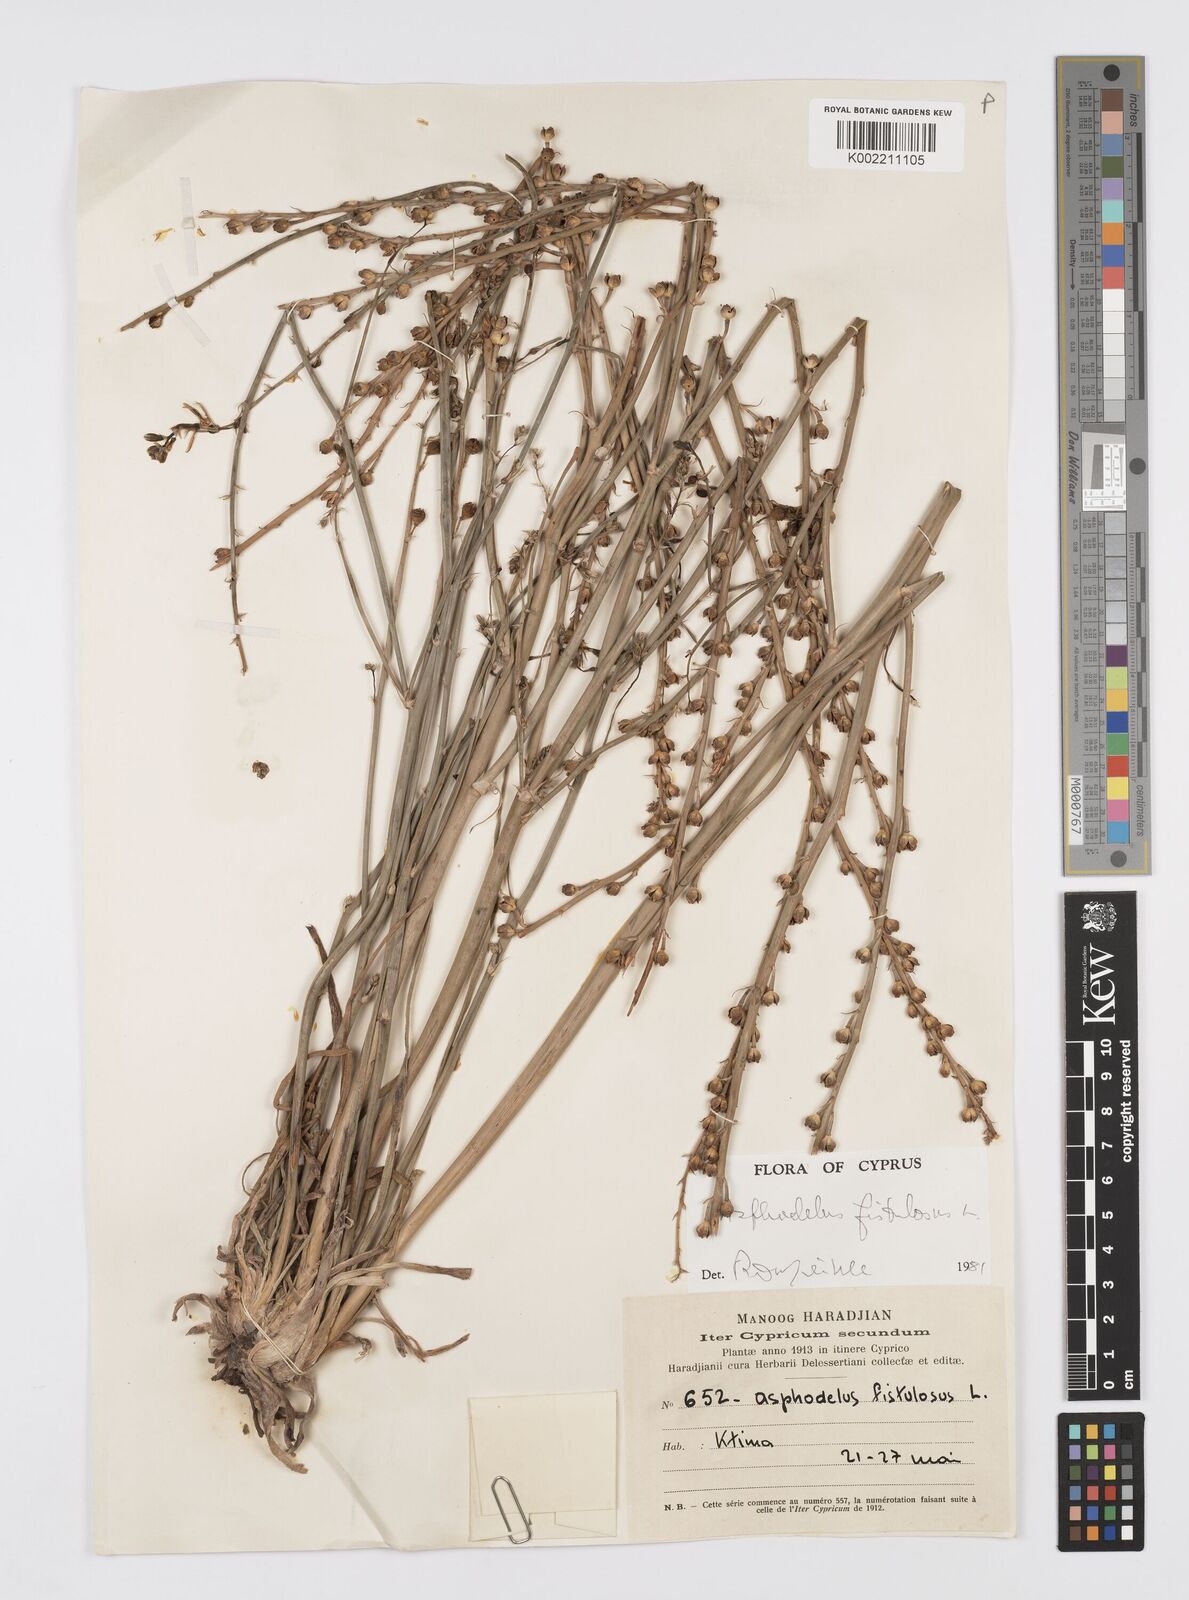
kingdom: Plantae
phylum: Tracheophyta
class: Liliopsida
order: Asparagales
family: Asphodelaceae
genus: Asphodelus
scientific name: Asphodelus fistulosus
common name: Onionweed
